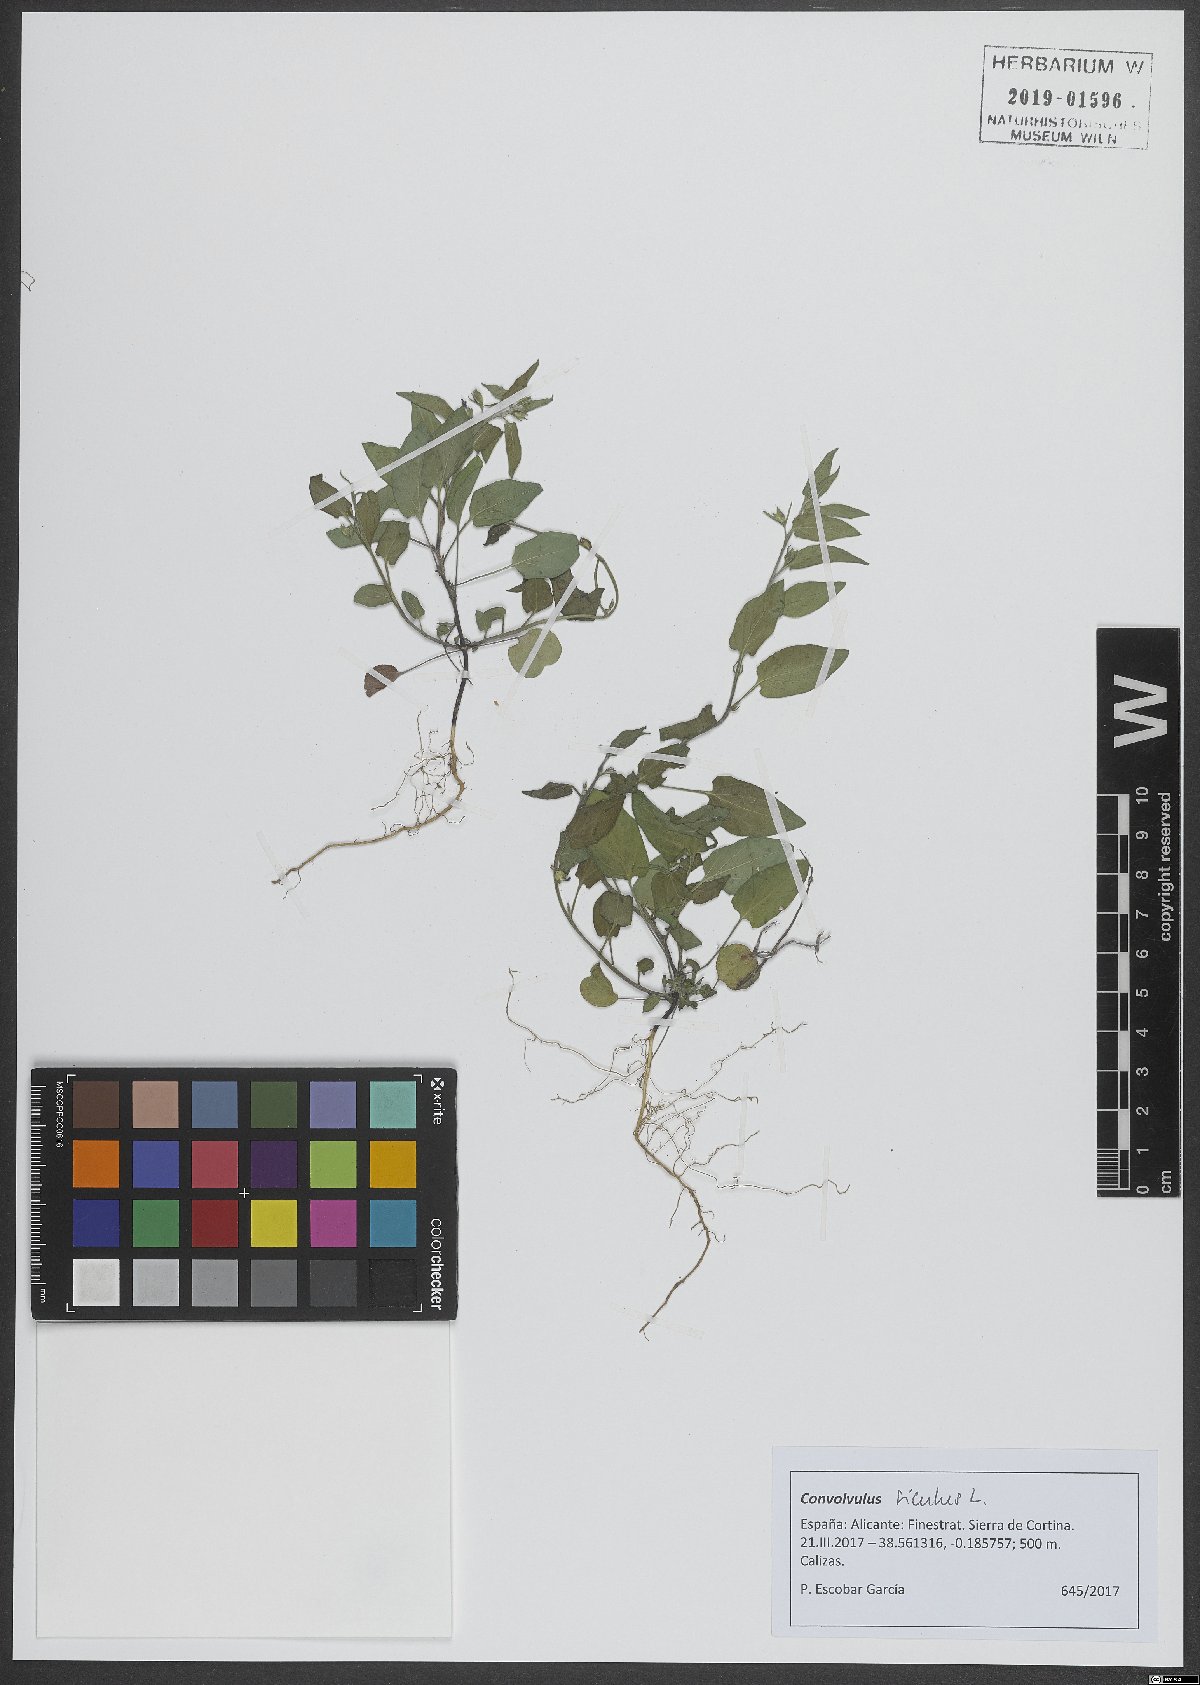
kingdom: Plantae
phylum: Tracheophyta
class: Magnoliopsida
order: Solanales
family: Convolvulaceae
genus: Convolvulus
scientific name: Convolvulus siculus
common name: Small blue-convolvulus
